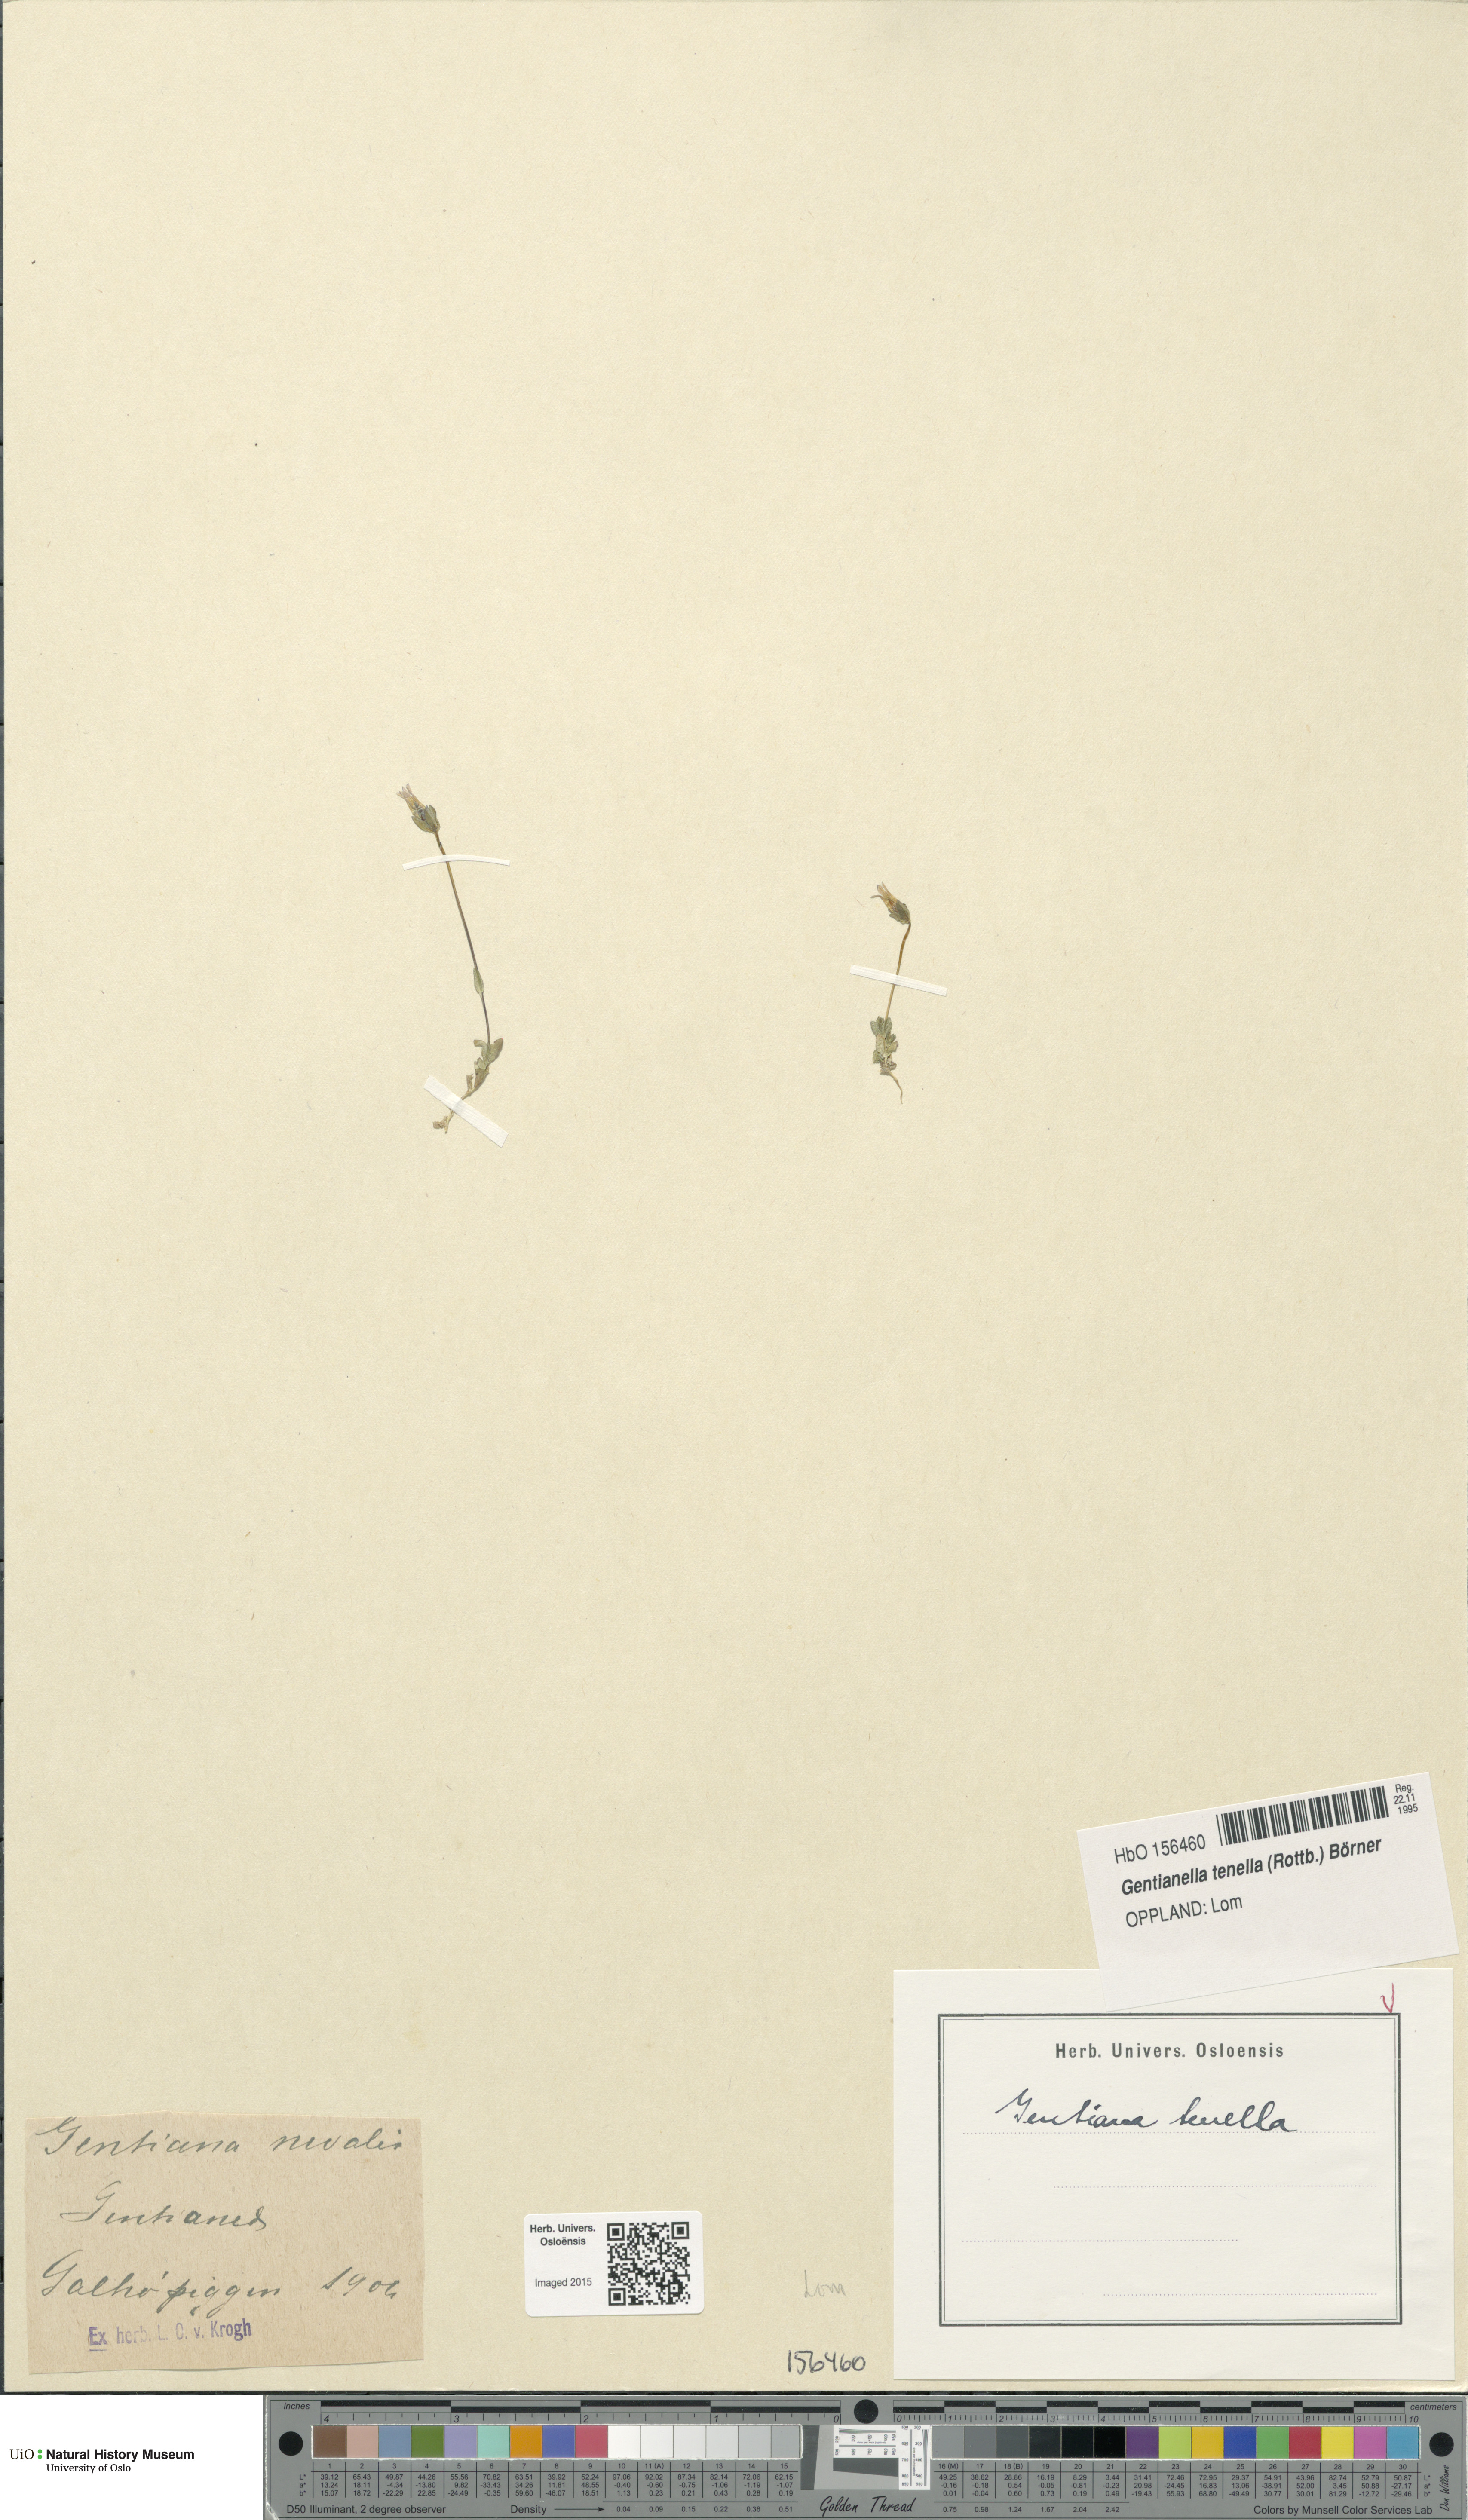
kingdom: Plantae
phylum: Tracheophyta
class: Magnoliopsida
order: Gentianales
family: Gentianaceae
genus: Comastoma
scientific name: Comastoma tenellum
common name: Dane's dwarf gentian
